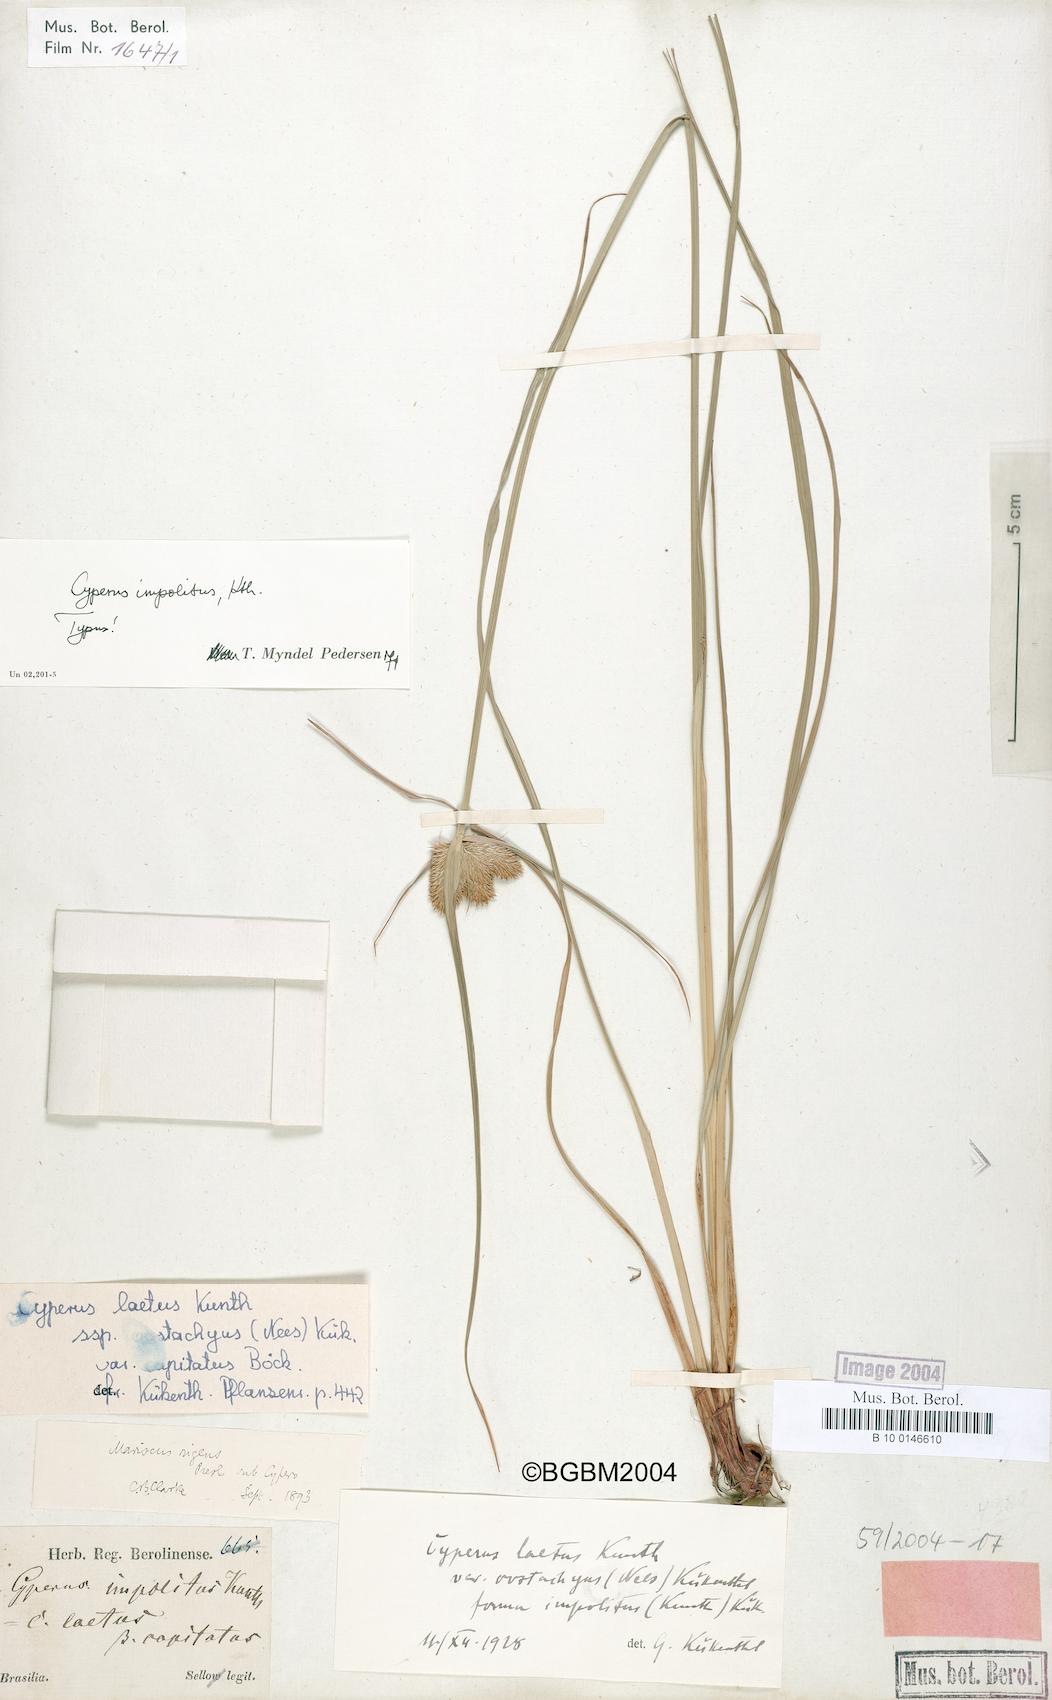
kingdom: Plantae
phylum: Tracheophyta
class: Liliopsida
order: Poales
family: Cyperaceae
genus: Cyperus
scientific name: Cyperus impolitus
